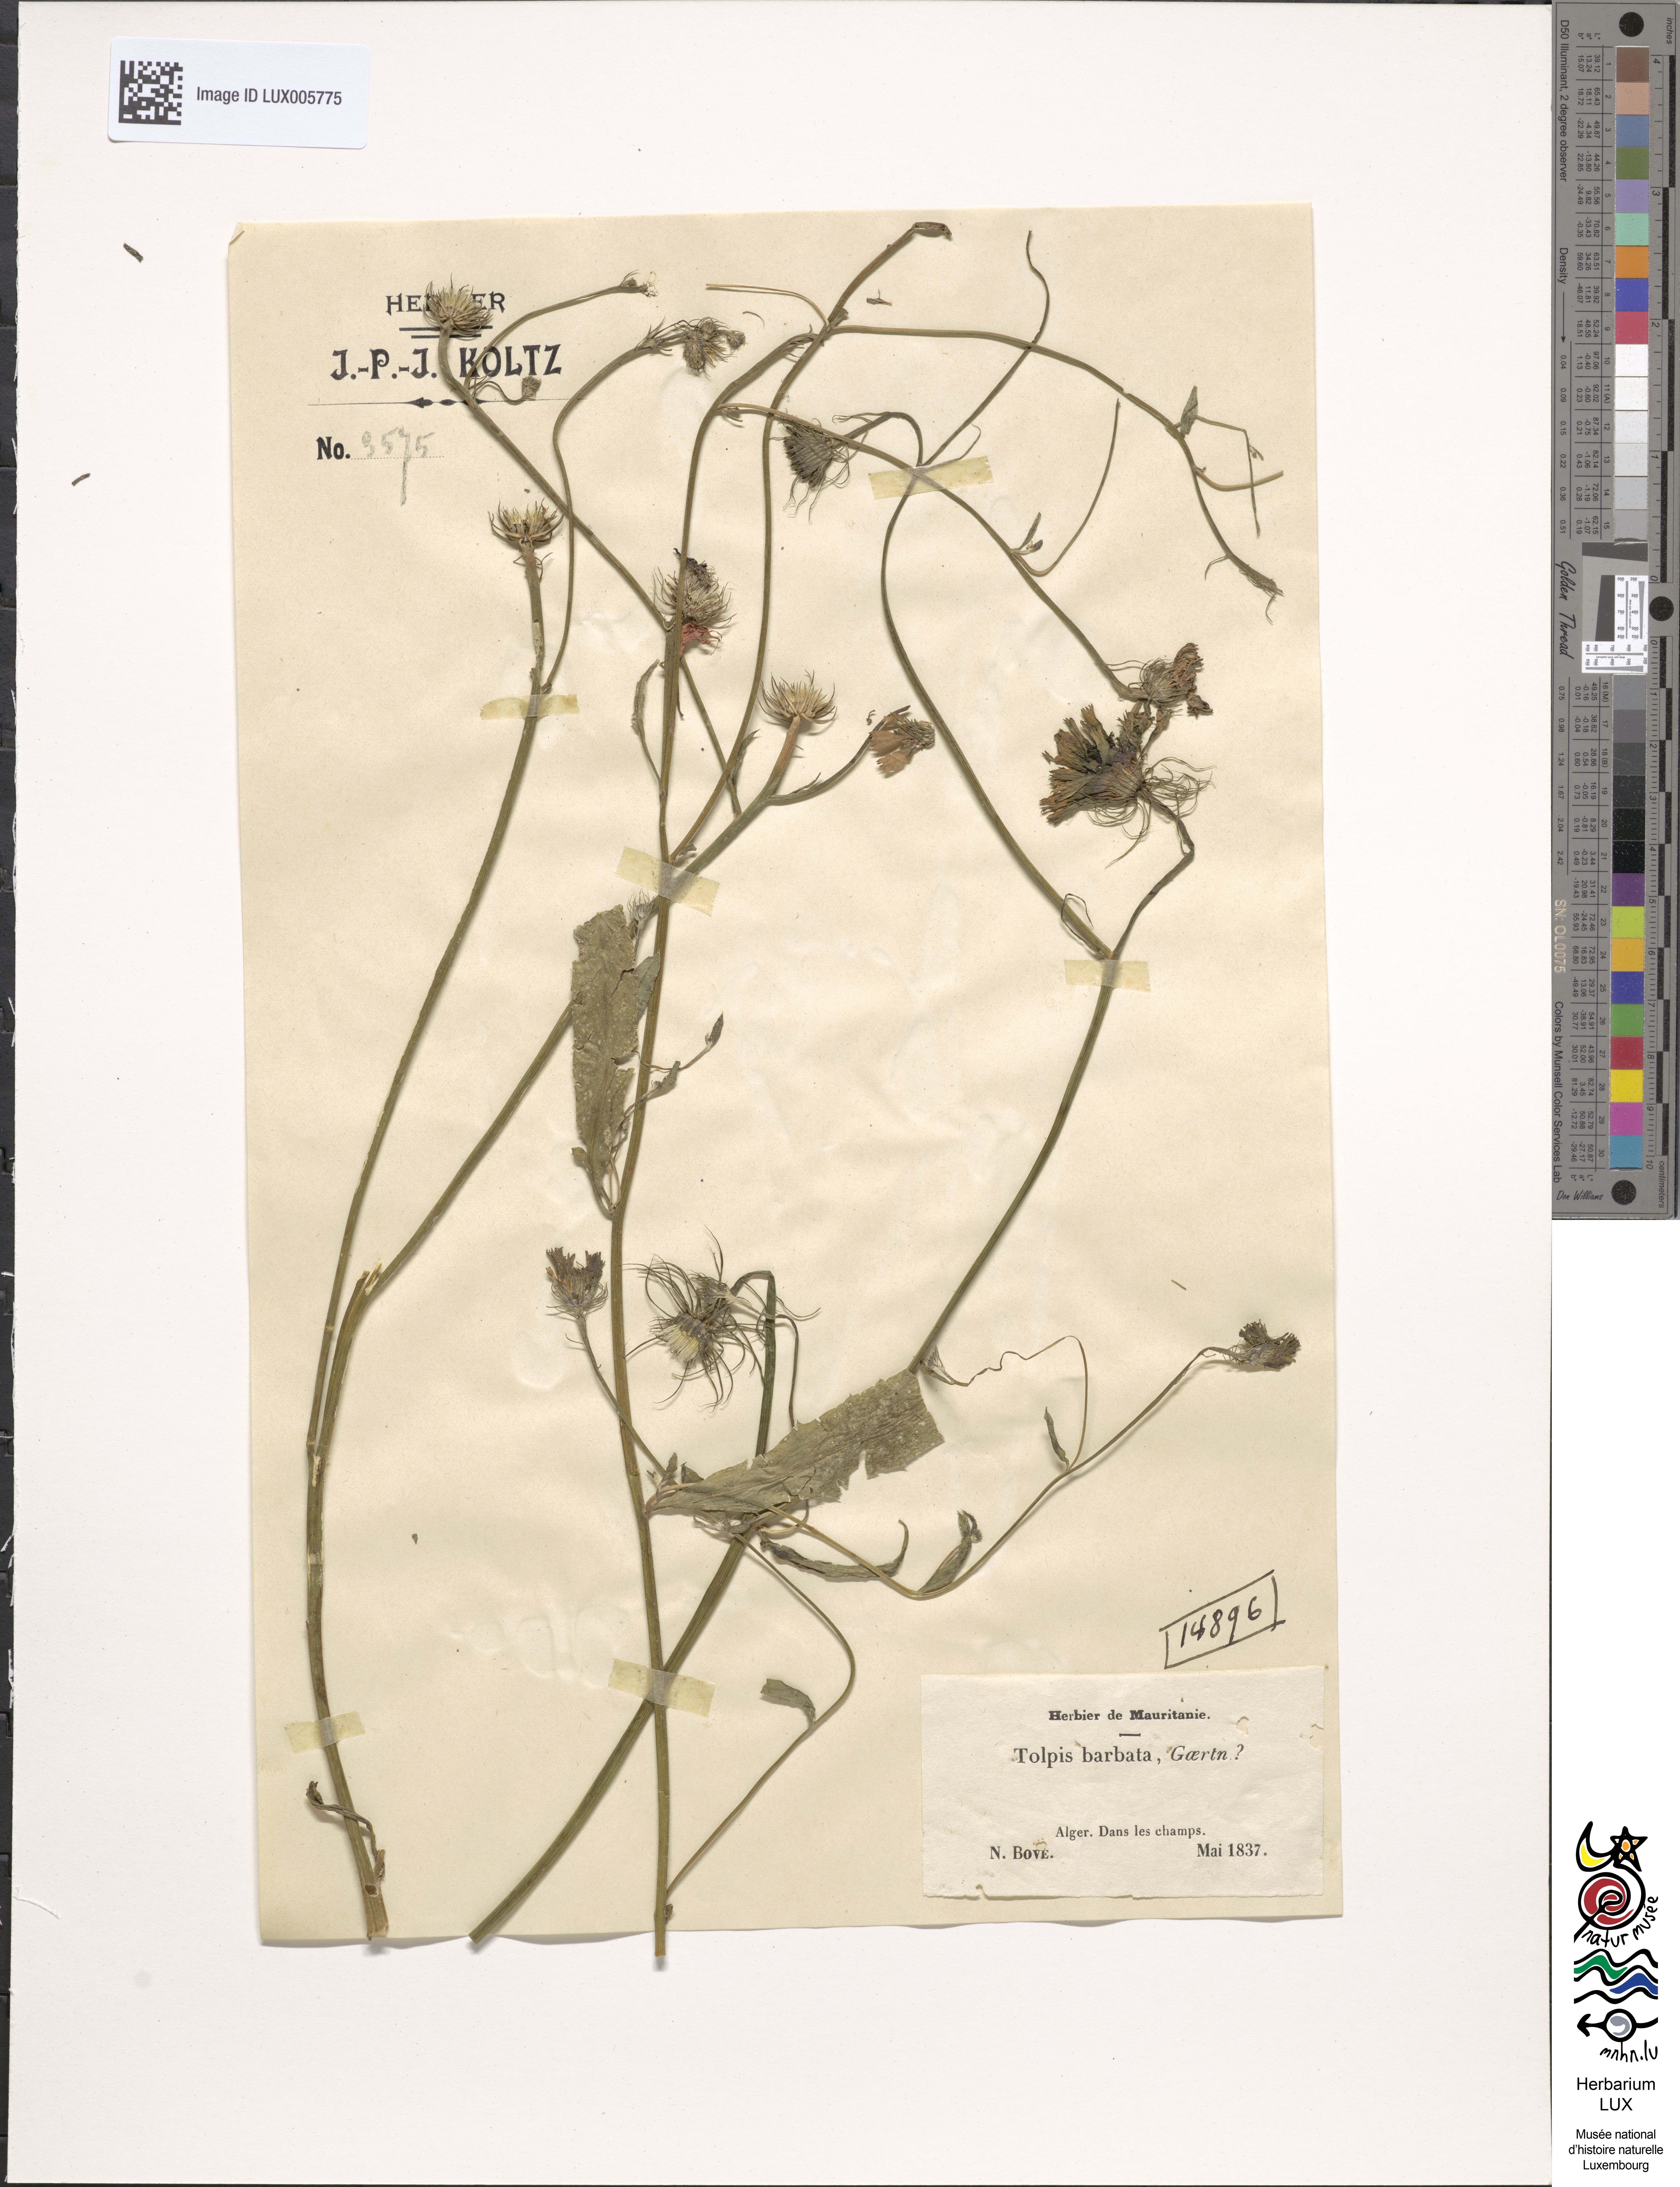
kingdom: Plantae
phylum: Tracheophyta
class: Magnoliopsida
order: Asterales
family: Asteraceae
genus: Tolpis
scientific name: Tolpis barbata
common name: Yellow hawkweed
